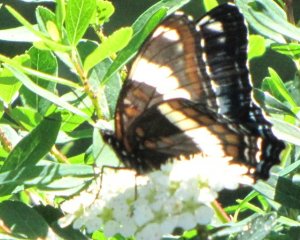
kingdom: Animalia
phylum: Arthropoda
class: Insecta
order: Lepidoptera
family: Nymphalidae
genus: Limenitis
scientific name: Limenitis arthemis
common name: Red-spotted Admiral
